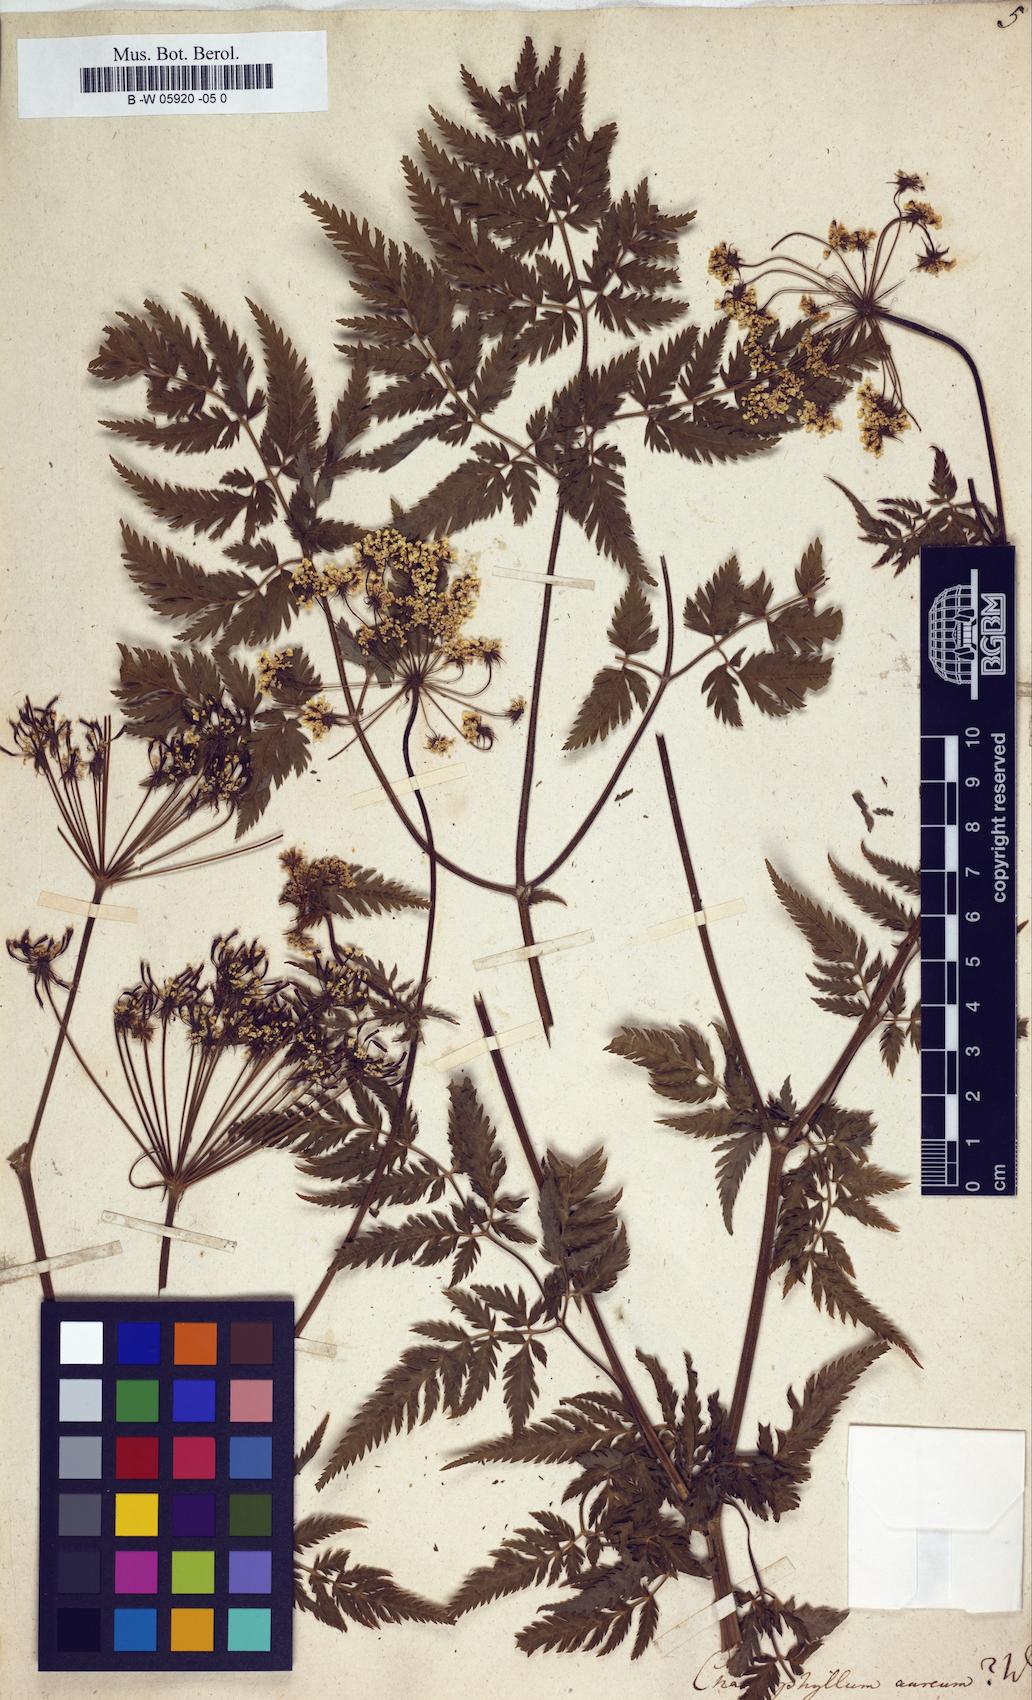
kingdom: Plantae
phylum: Tracheophyta
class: Magnoliopsida
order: Apiales
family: Apiaceae
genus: Chaerophyllum
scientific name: Chaerophyllum aureum
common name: Golden chervil
